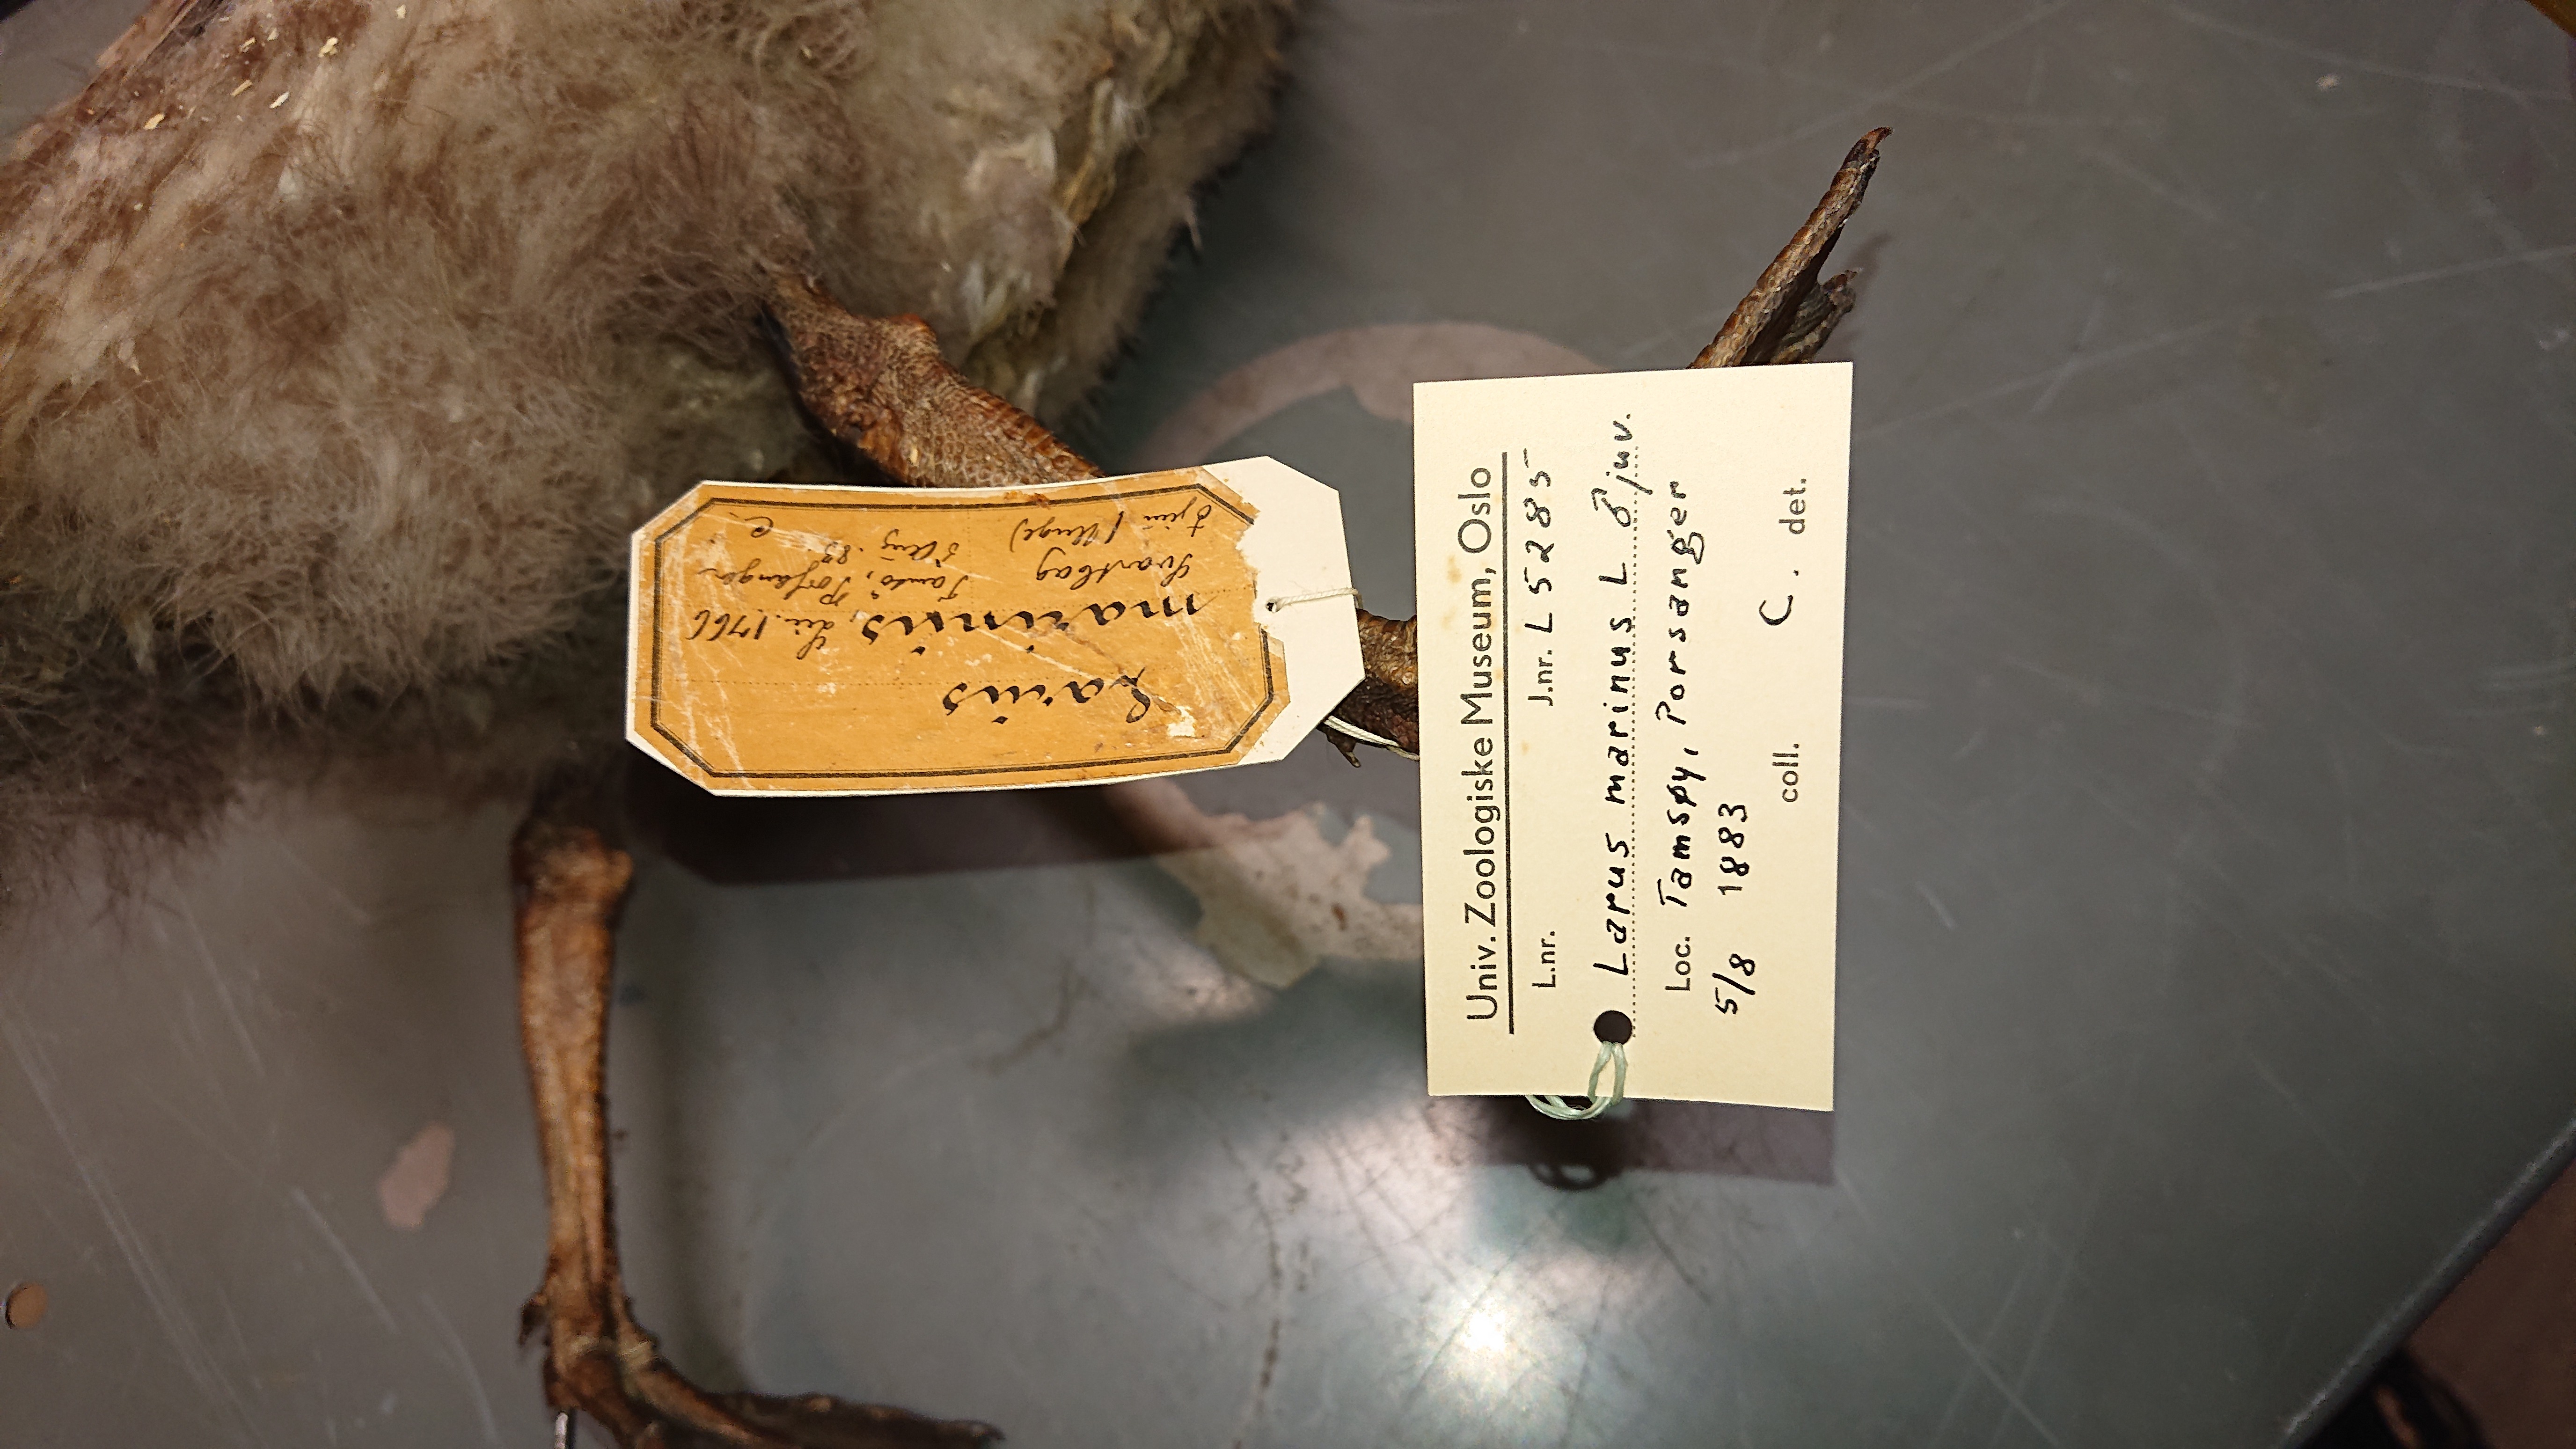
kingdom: Animalia
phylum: Chordata
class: Aves
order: Charadriiformes
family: Laridae
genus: Larus
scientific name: Larus marinus
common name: Great black-backed gull
